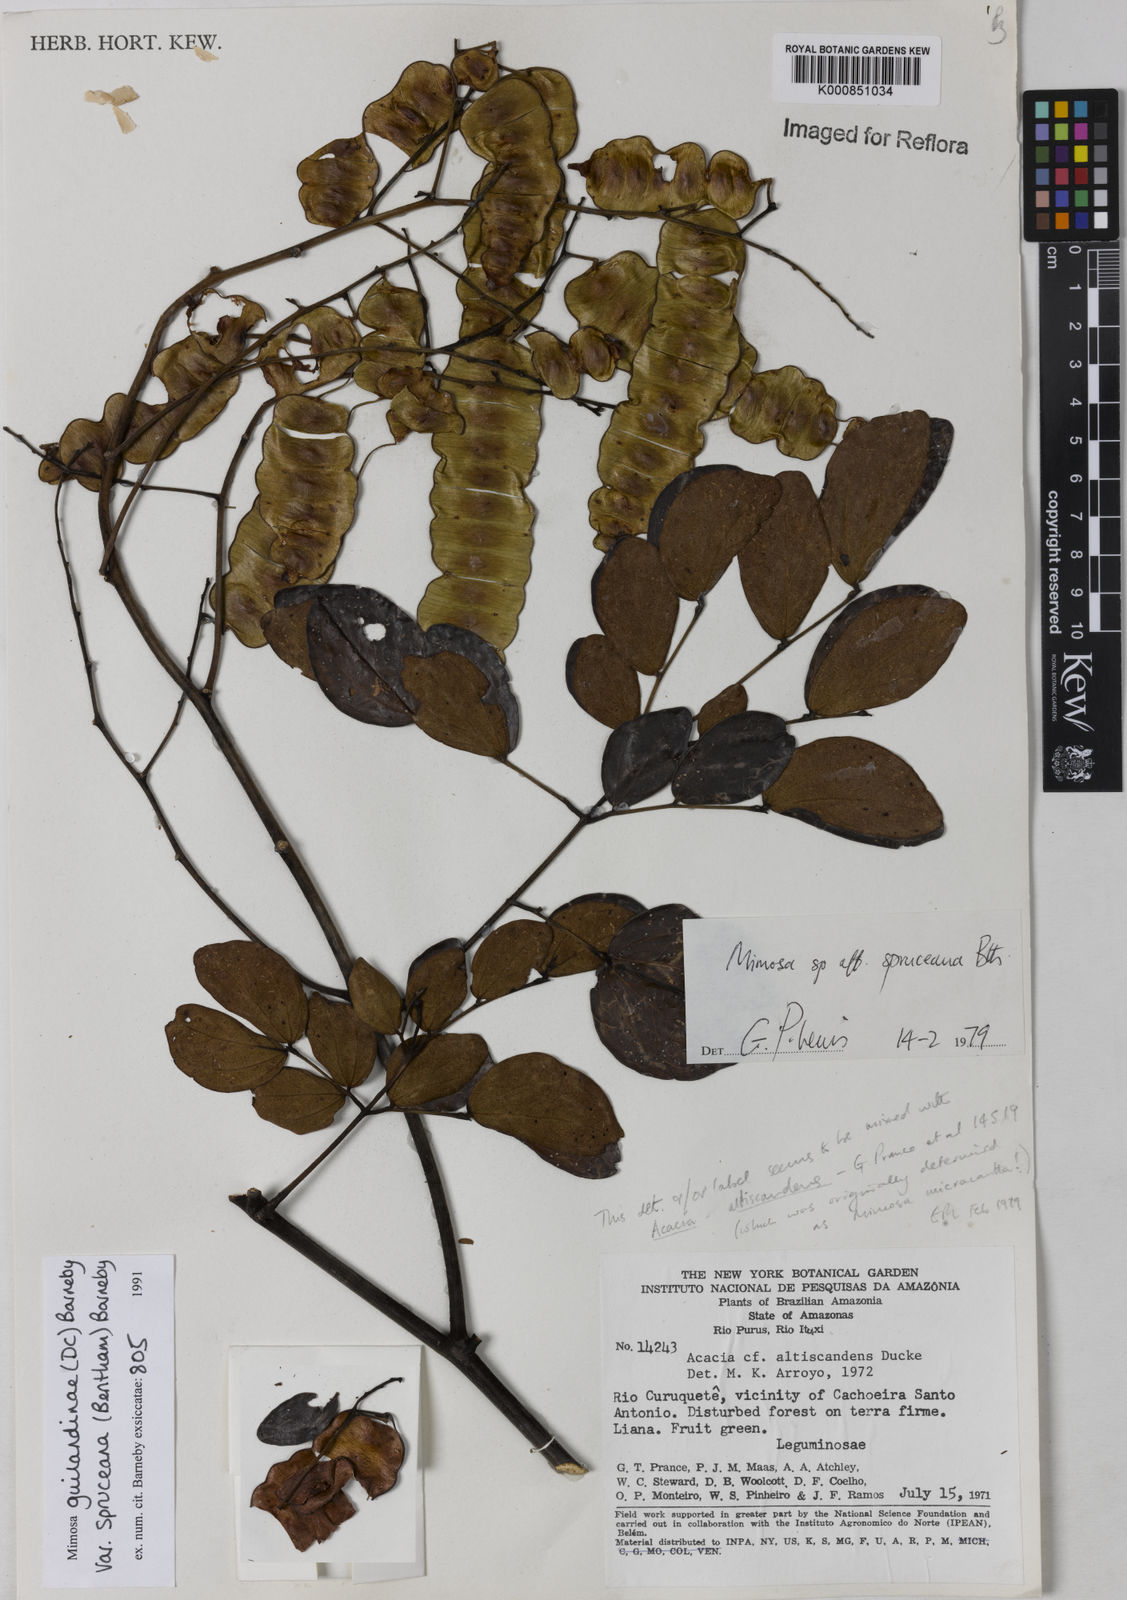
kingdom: Plantae
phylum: Tracheophyta
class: Magnoliopsida
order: Fabales
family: Fabaceae
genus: Mimosa
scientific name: Mimosa guilandinae
